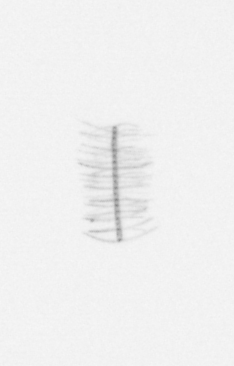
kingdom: Chromista
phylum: Ochrophyta
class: Bacillariophyceae
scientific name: Bacillariophyceae
